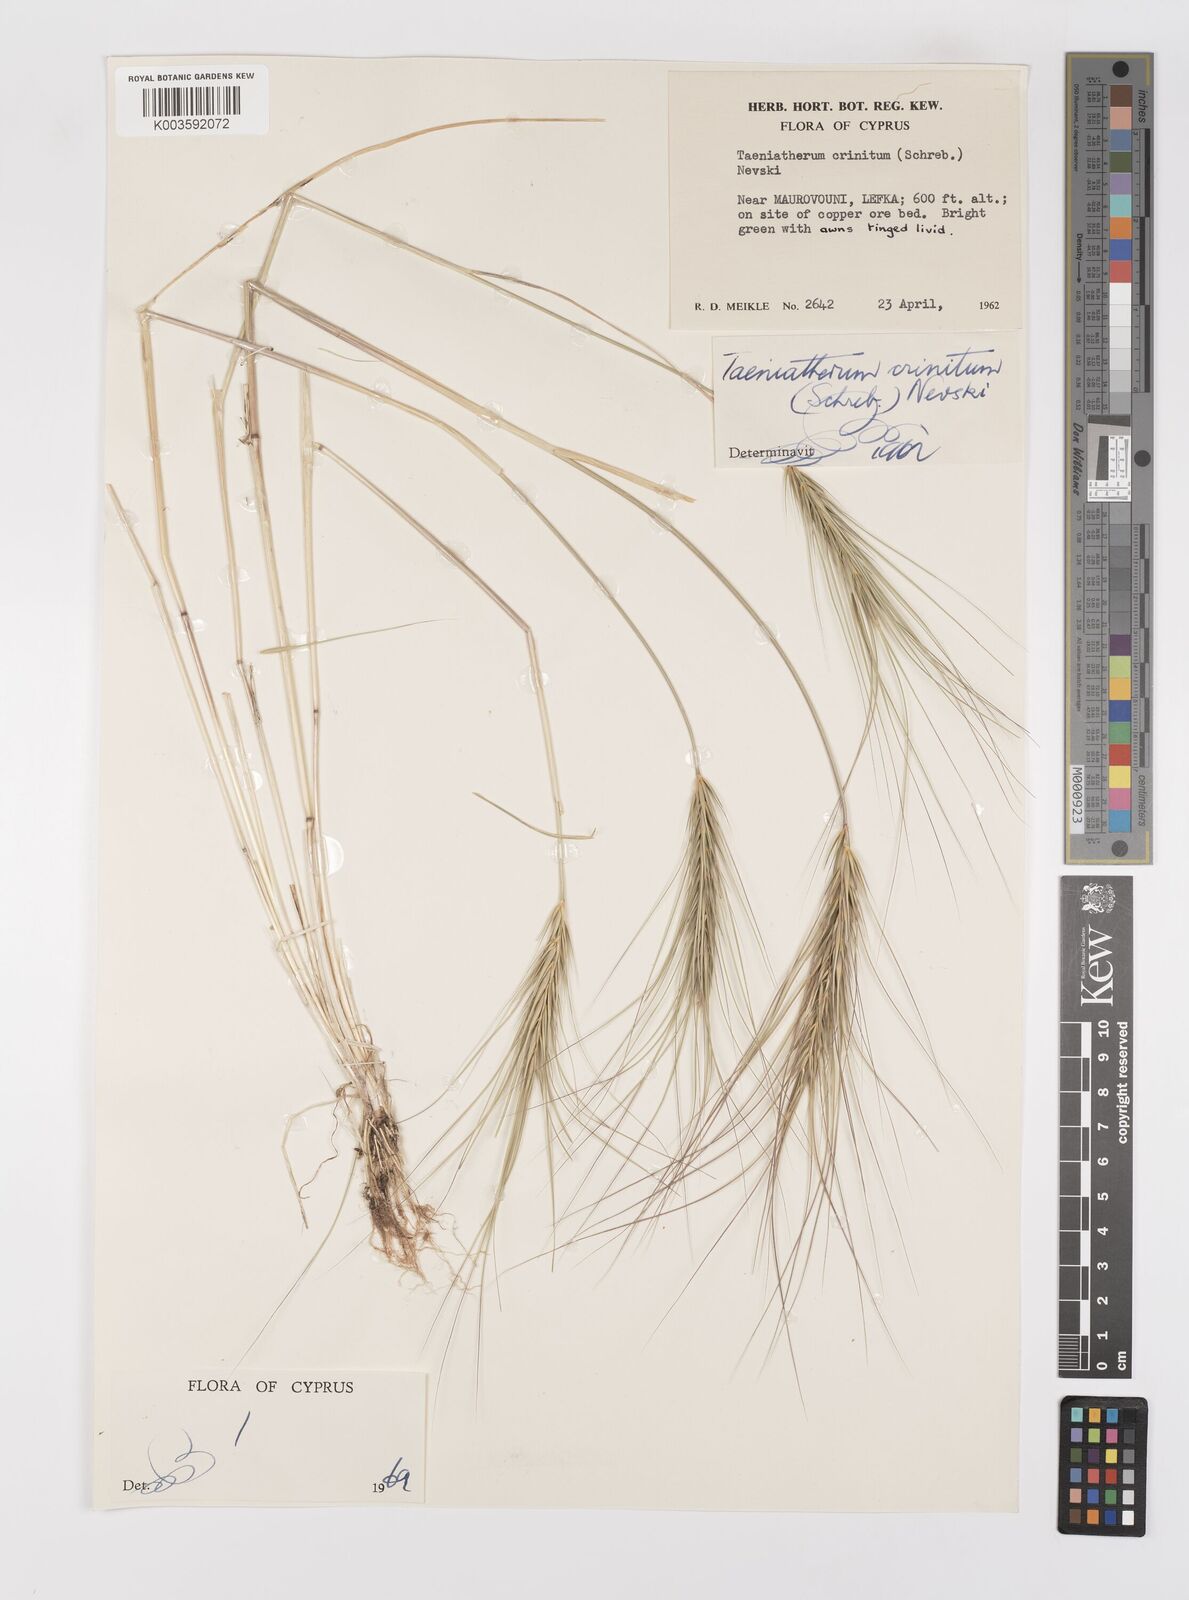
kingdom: Plantae
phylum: Tracheophyta
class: Liliopsida
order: Poales
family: Poaceae
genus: Taeniatherum
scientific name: Taeniatherum caput-medusae
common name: Medusahead
